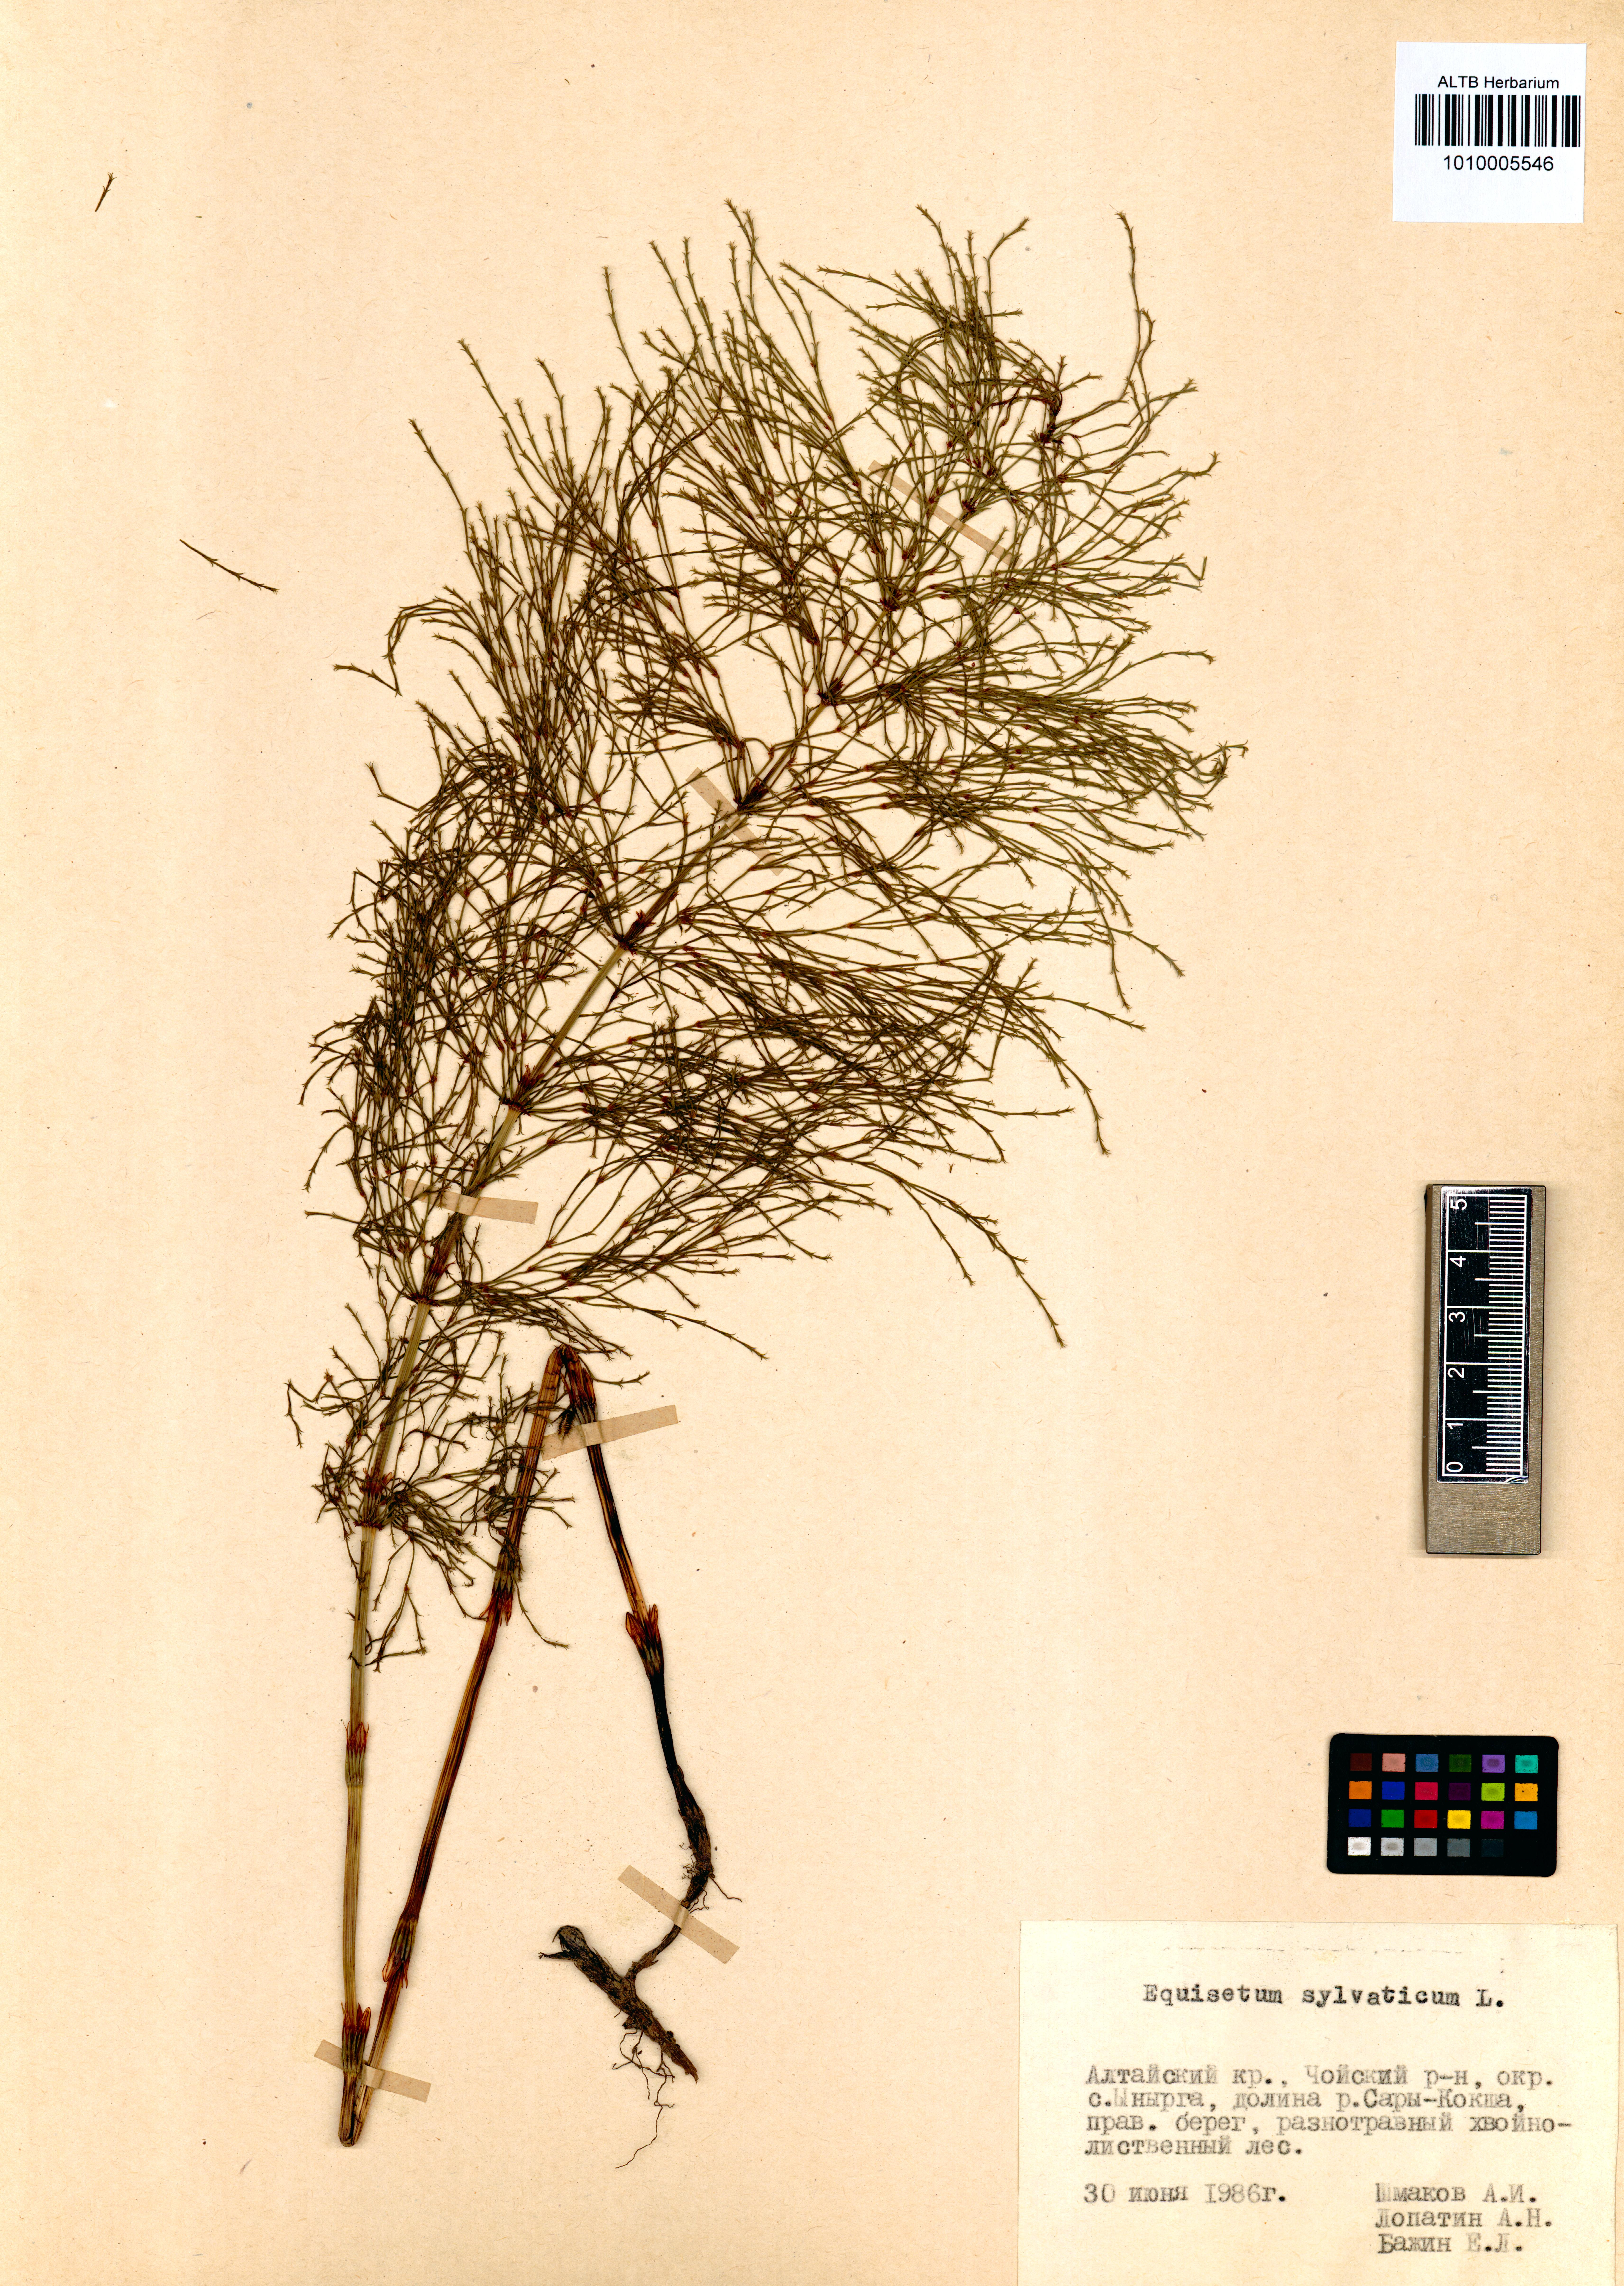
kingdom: Plantae
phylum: Tracheophyta
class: Polypodiopsida
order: Equisetales
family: Equisetaceae
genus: Equisetum
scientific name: Equisetum sylvaticum
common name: Wood horsetail
